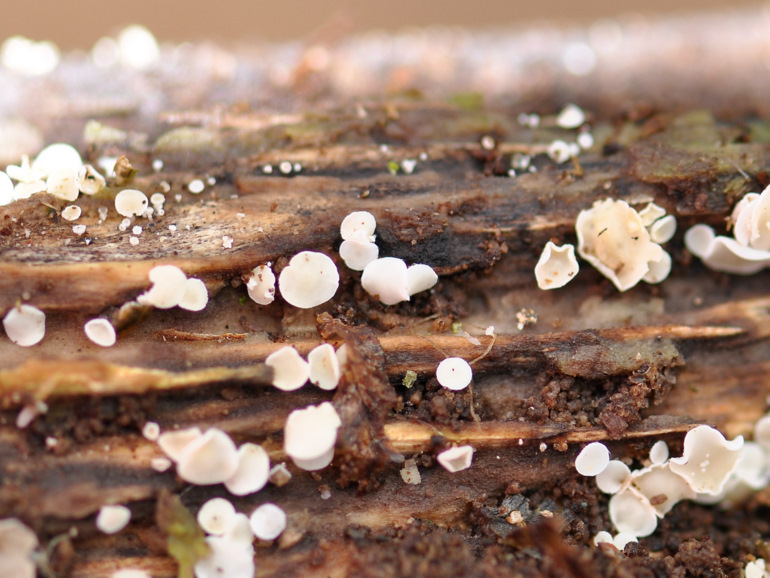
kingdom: Fungi
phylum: Ascomycota
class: Leotiomycetes
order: Helotiales
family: Lachnaceae
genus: Lachnum
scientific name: Lachnum impudicum
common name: vinter-frynseskive
